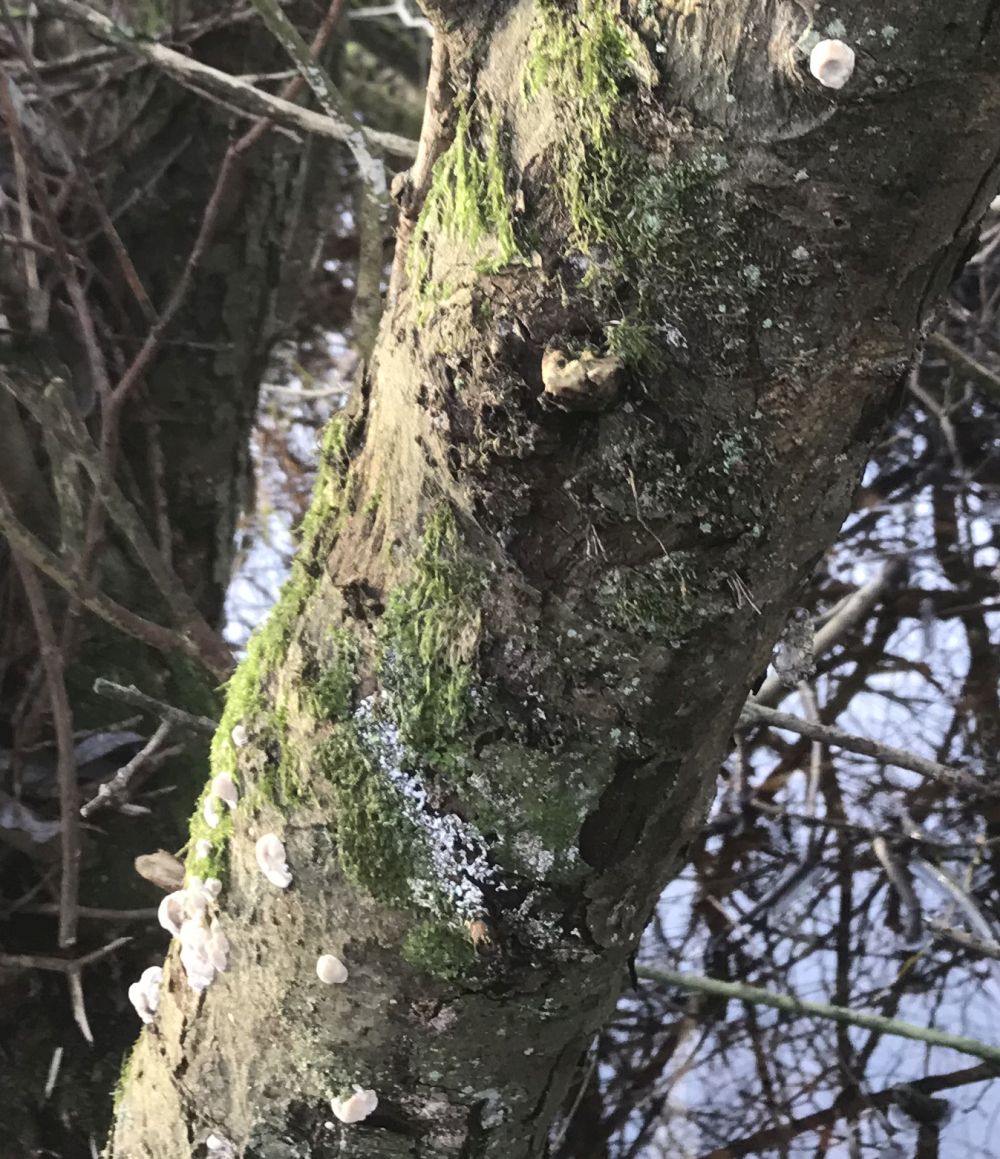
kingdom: Fungi
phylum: Basidiomycota
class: Agaricomycetes
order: Polyporales
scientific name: Polyporales
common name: poresvampordenen
